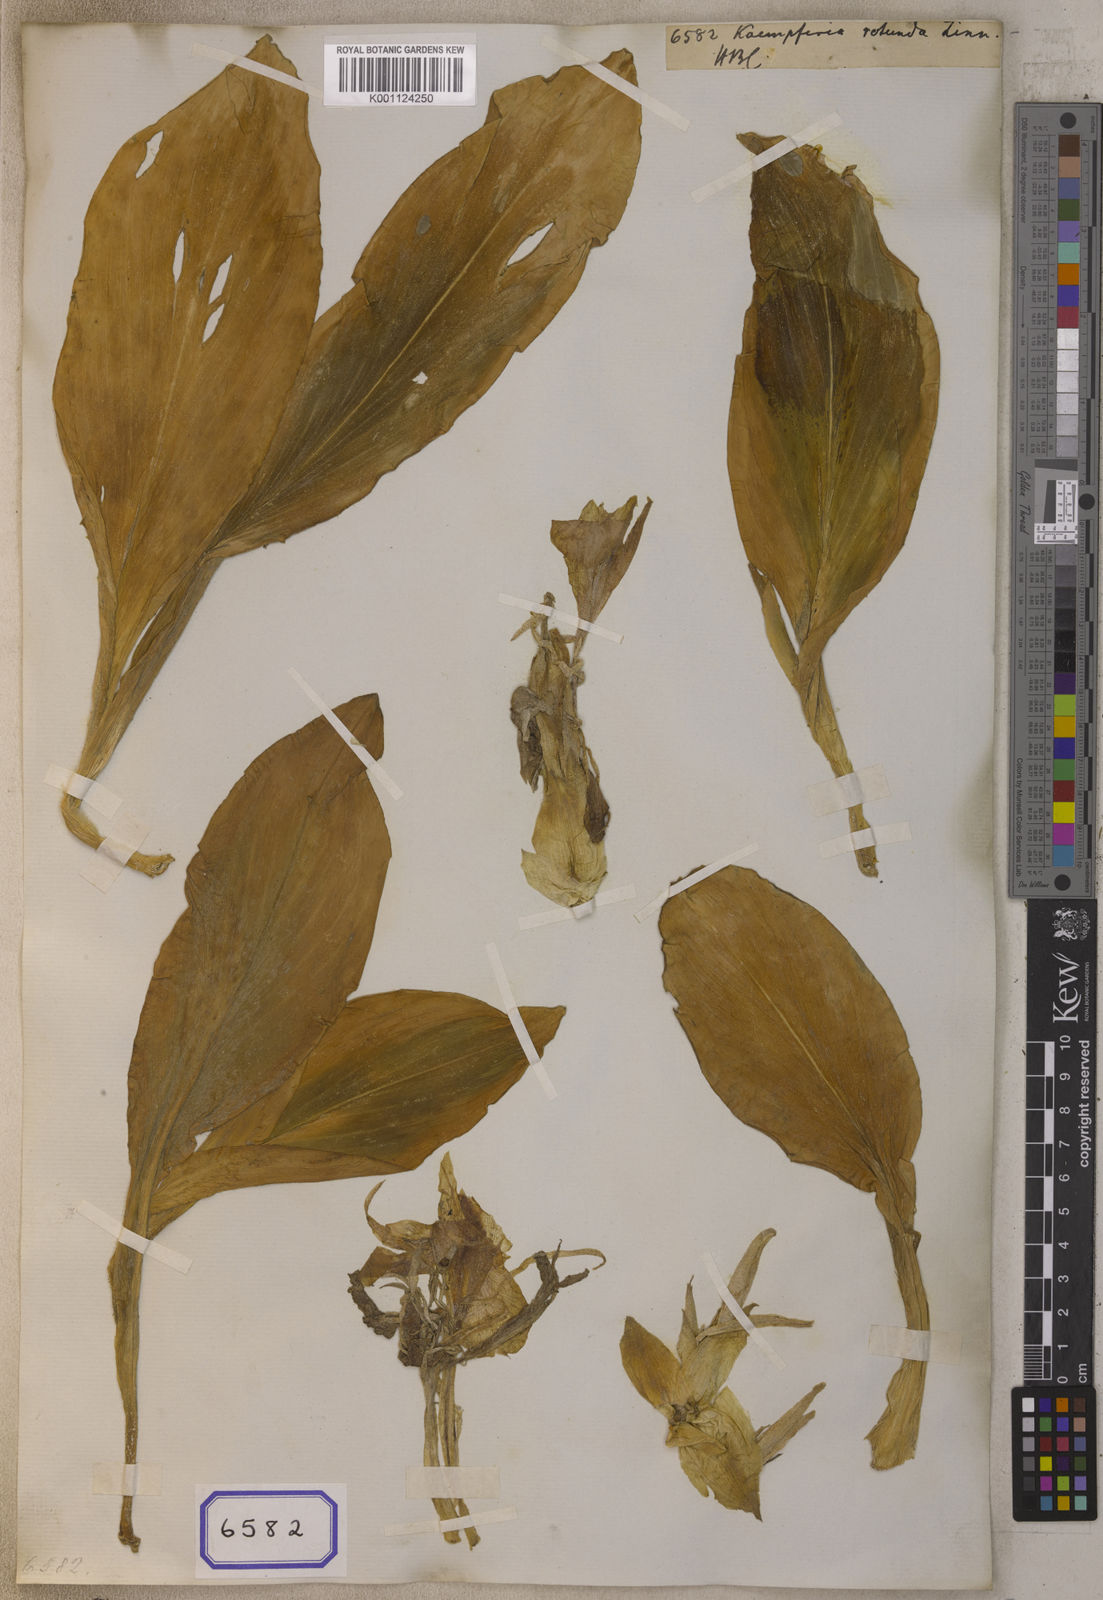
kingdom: Plantae
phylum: Tracheophyta
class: Liliopsida
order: Zingiberales
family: Zingiberaceae
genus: Kaempferia
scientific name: Kaempferia rotunda
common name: Tropical-crocus
